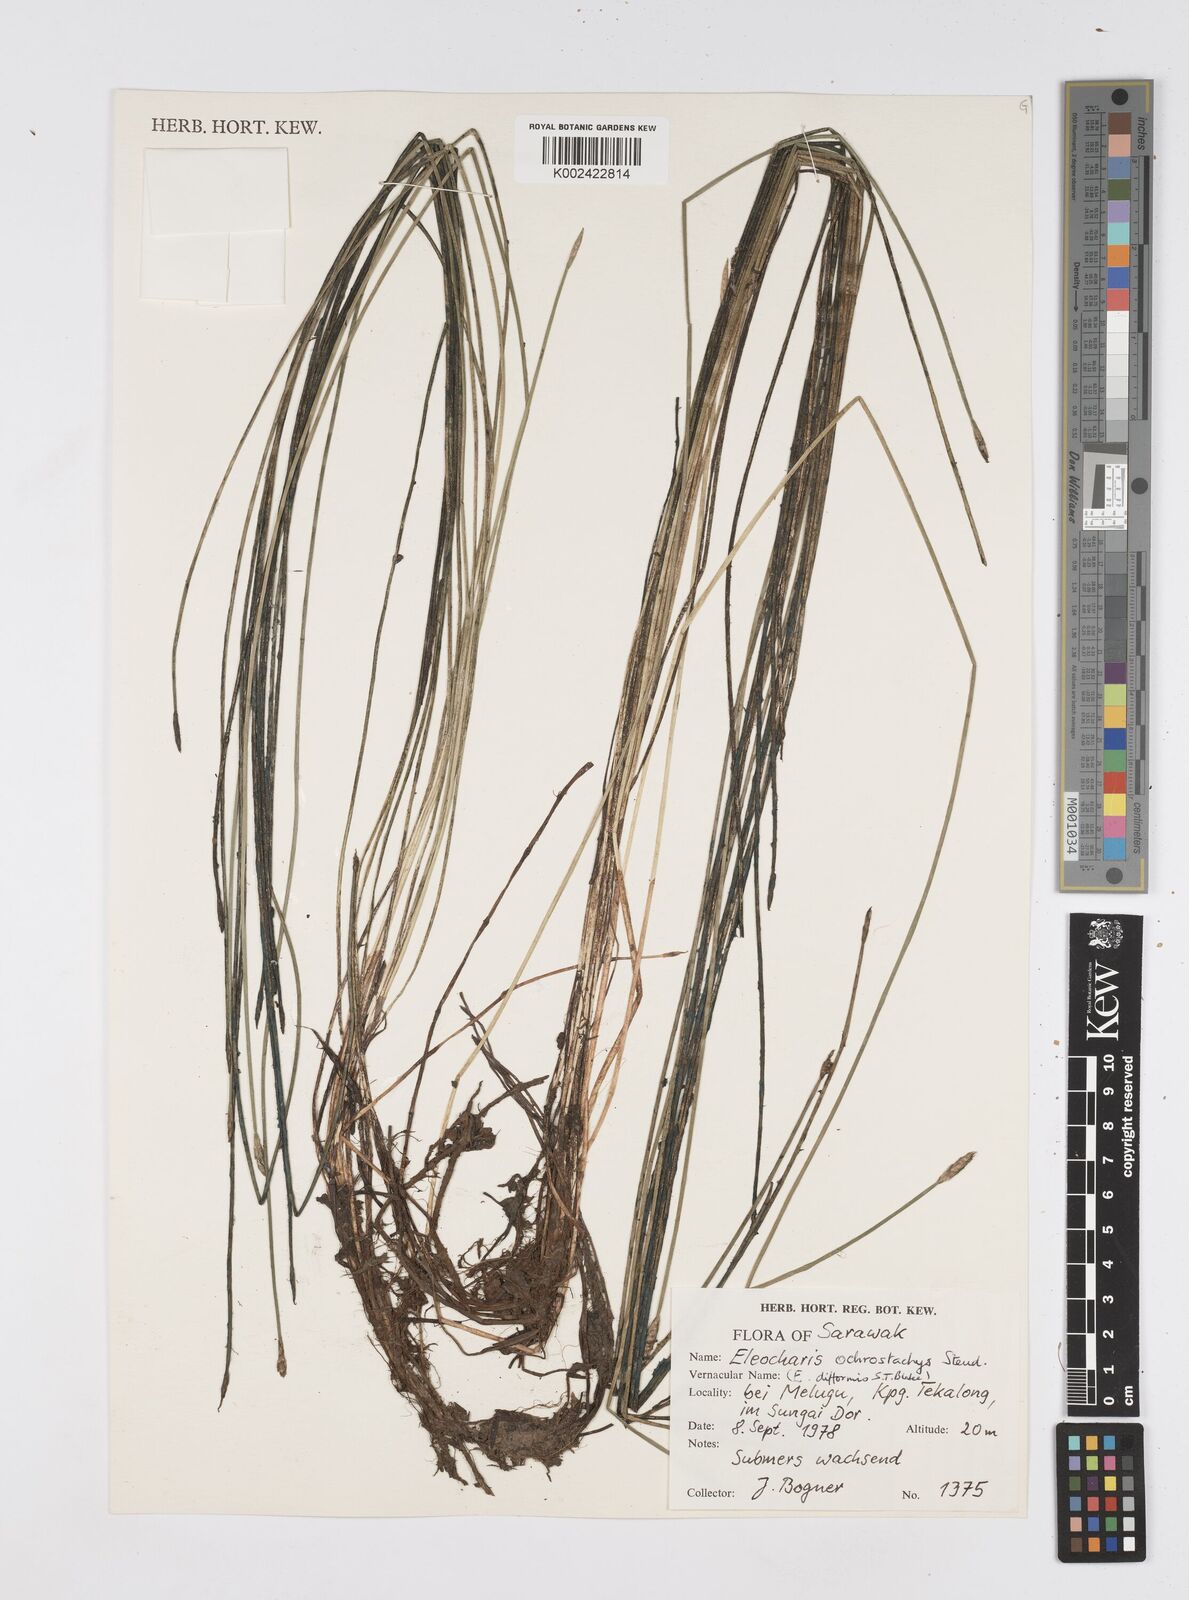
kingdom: Plantae
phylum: Tracheophyta
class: Liliopsida
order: Poales
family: Cyperaceae
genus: Eleocharis
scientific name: Eleocharis ochrostachys
